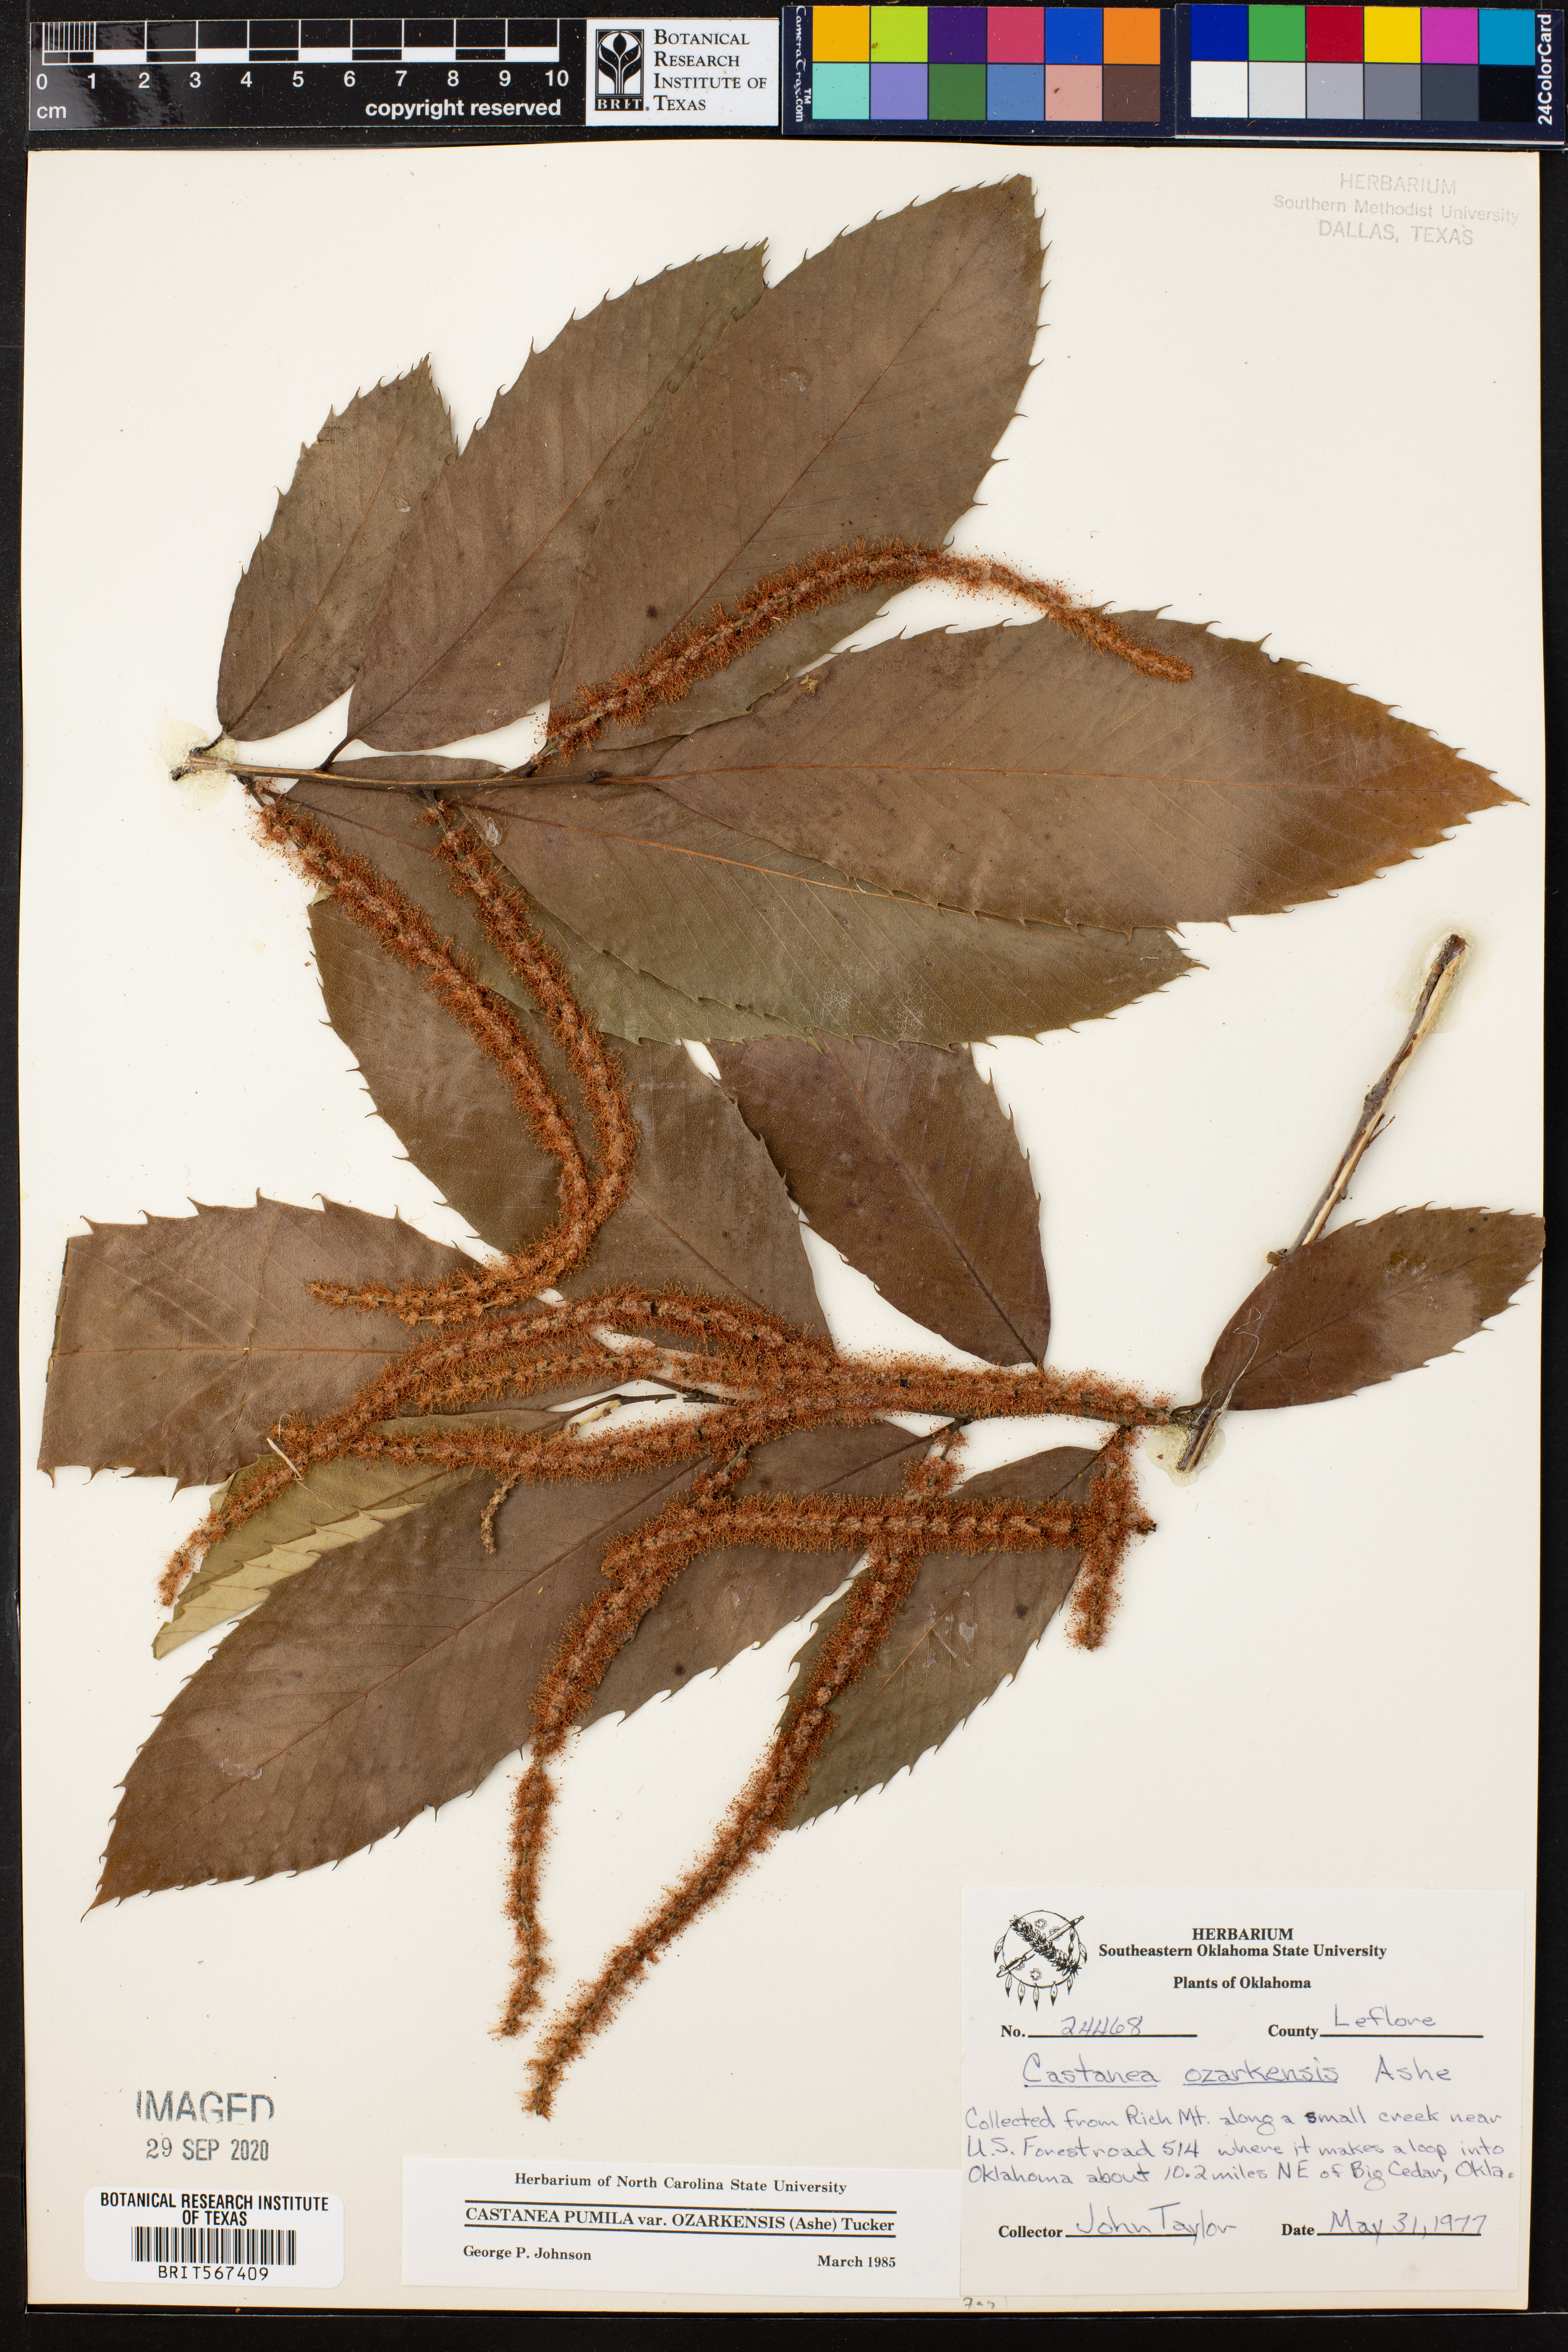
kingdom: Plantae
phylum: Tracheophyta
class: Magnoliopsida
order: Fagales
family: Fagaceae
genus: Castanea
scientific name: Castanea ozarkensis
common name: Ozark chinkapin
